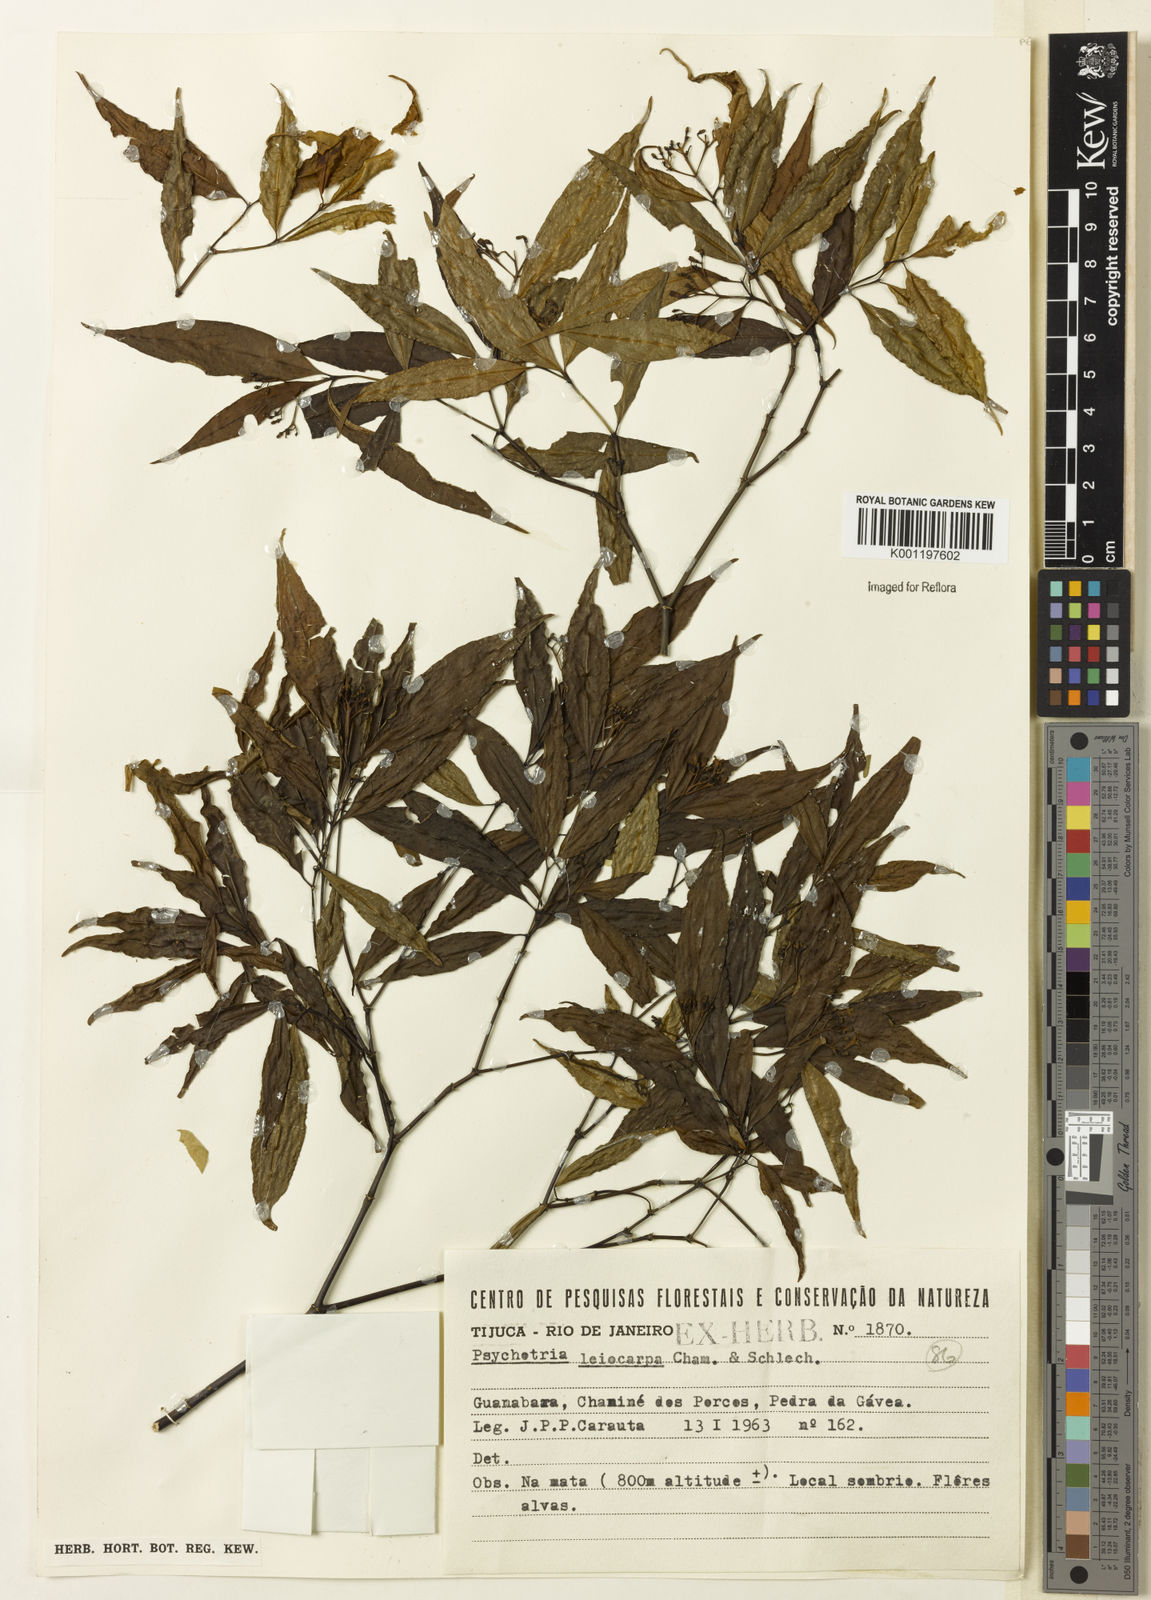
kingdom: Plantae
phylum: Tracheophyta
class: Magnoliopsida
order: Gentianales
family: Rubiaceae
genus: Psychotria
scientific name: Psychotria leiocarpa
